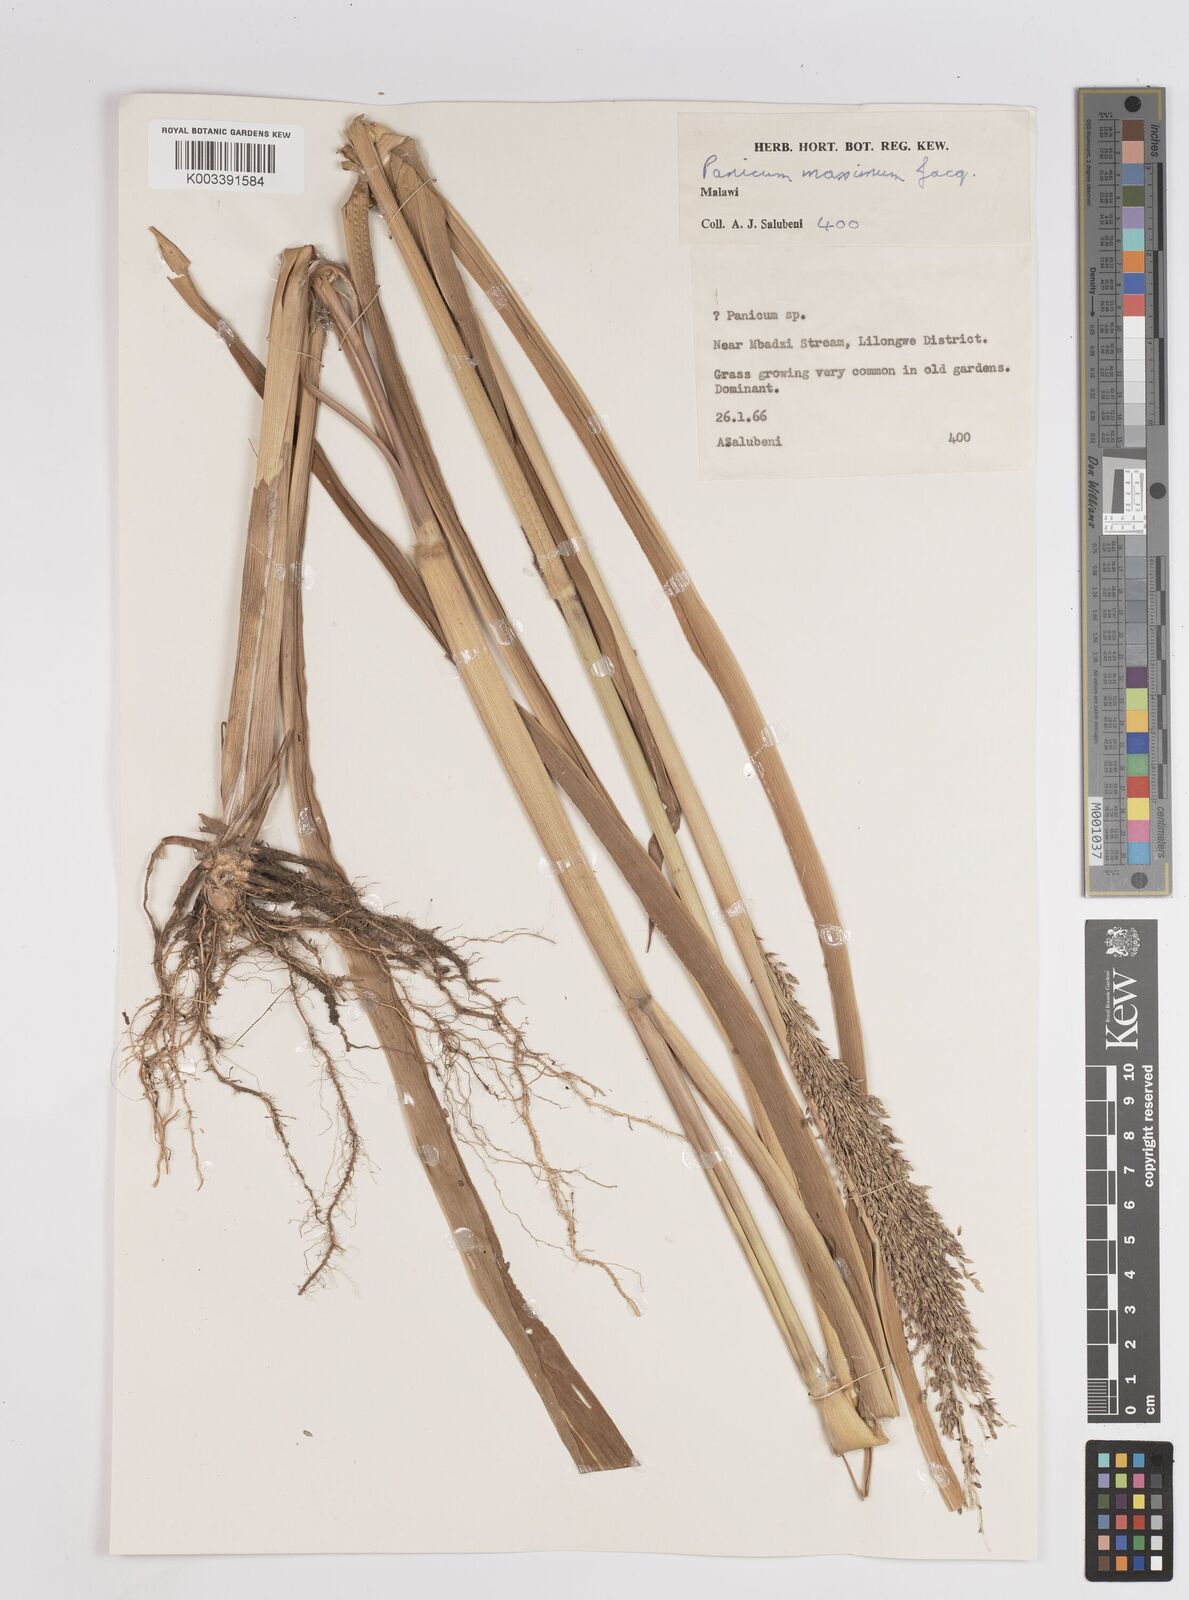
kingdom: Plantae
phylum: Tracheophyta
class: Liliopsida
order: Poales
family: Poaceae
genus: Megathyrsus
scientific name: Megathyrsus maximus
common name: Guineagrass
